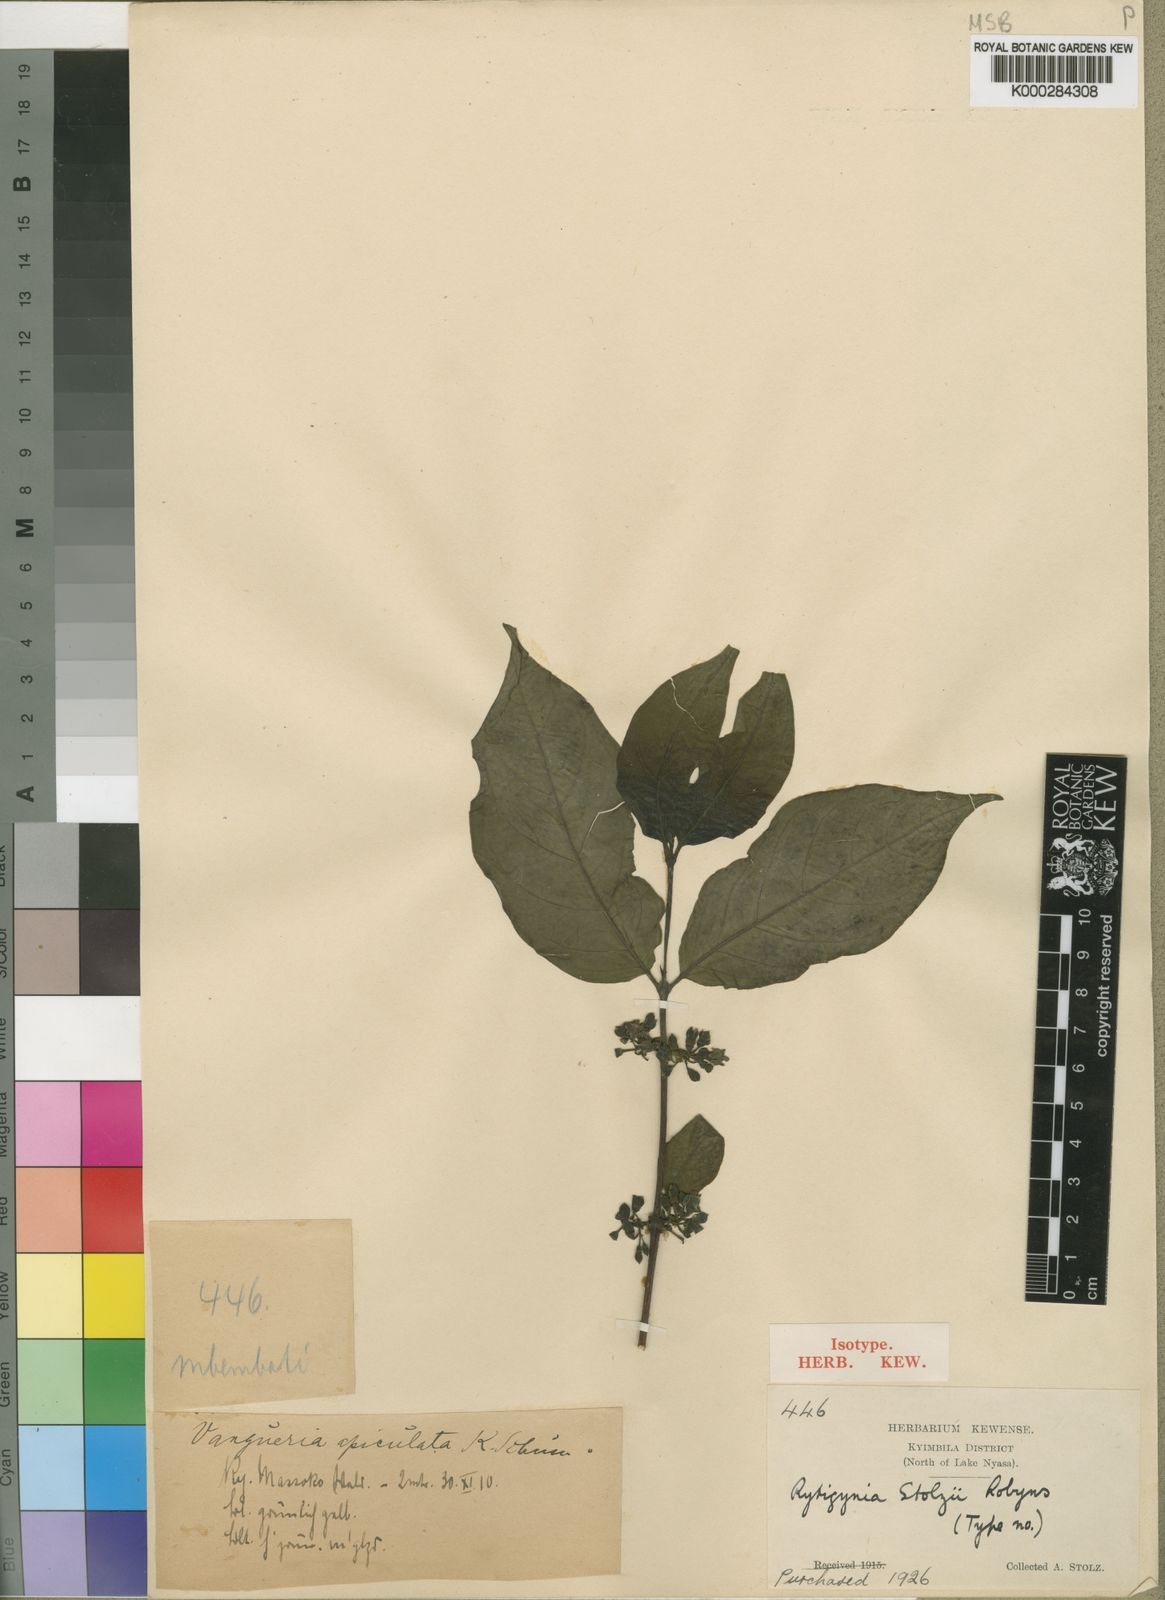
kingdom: Plantae
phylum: Tracheophyta
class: Magnoliopsida
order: Gentianales
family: Rubiaceae
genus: Rytigynia
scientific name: Rytigynia stolzii
